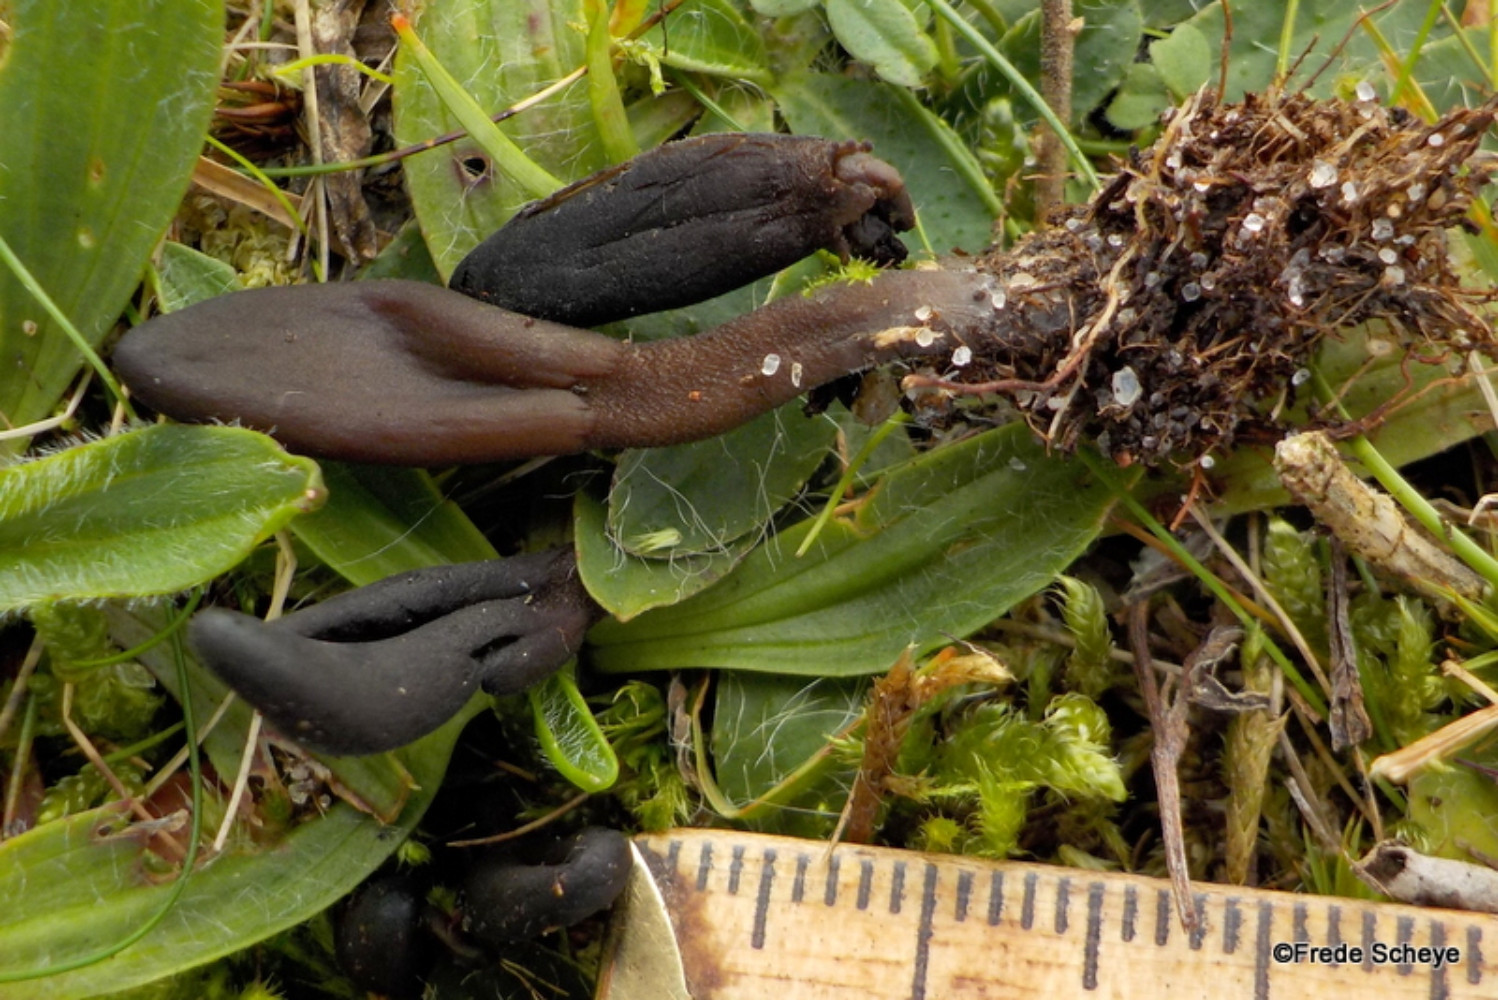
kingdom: Fungi
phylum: Ascomycota
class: Geoglossomycetes
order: Geoglossales
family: Geoglossaceae
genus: Hemileucoglossum
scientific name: Hemileucoglossum elongatum
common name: småsporet jordtunge
